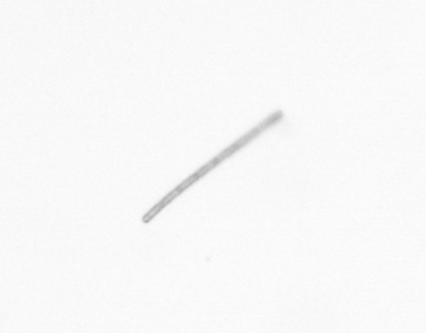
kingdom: Chromista
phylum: Ochrophyta
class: Bacillariophyceae
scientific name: Bacillariophyceae
